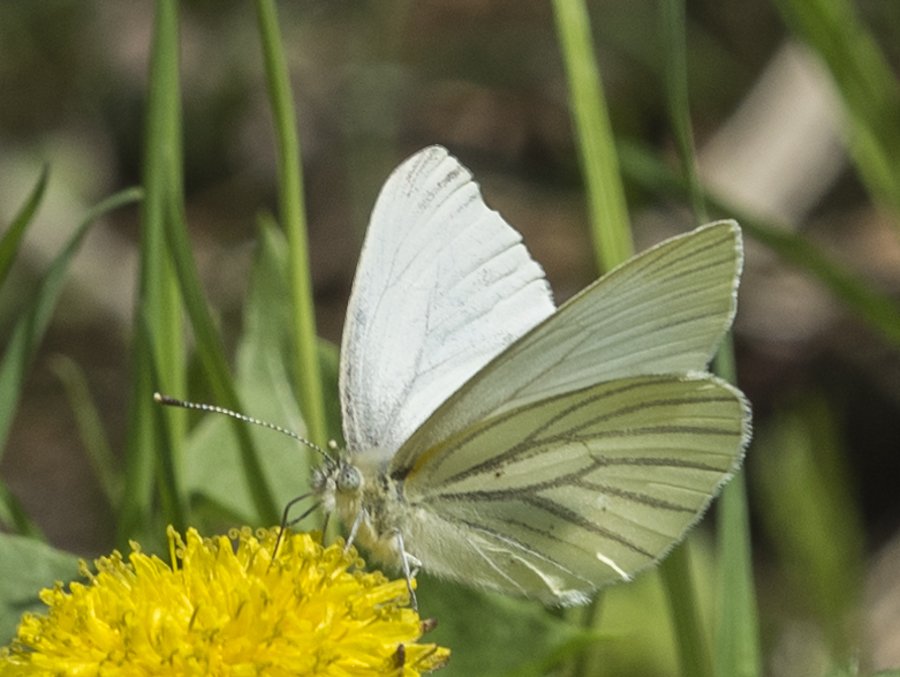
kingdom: Animalia
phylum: Arthropoda
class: Insecta
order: Lepidoptera
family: Pieridae
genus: Pieris
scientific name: Pieris oleracea
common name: Mustard White
